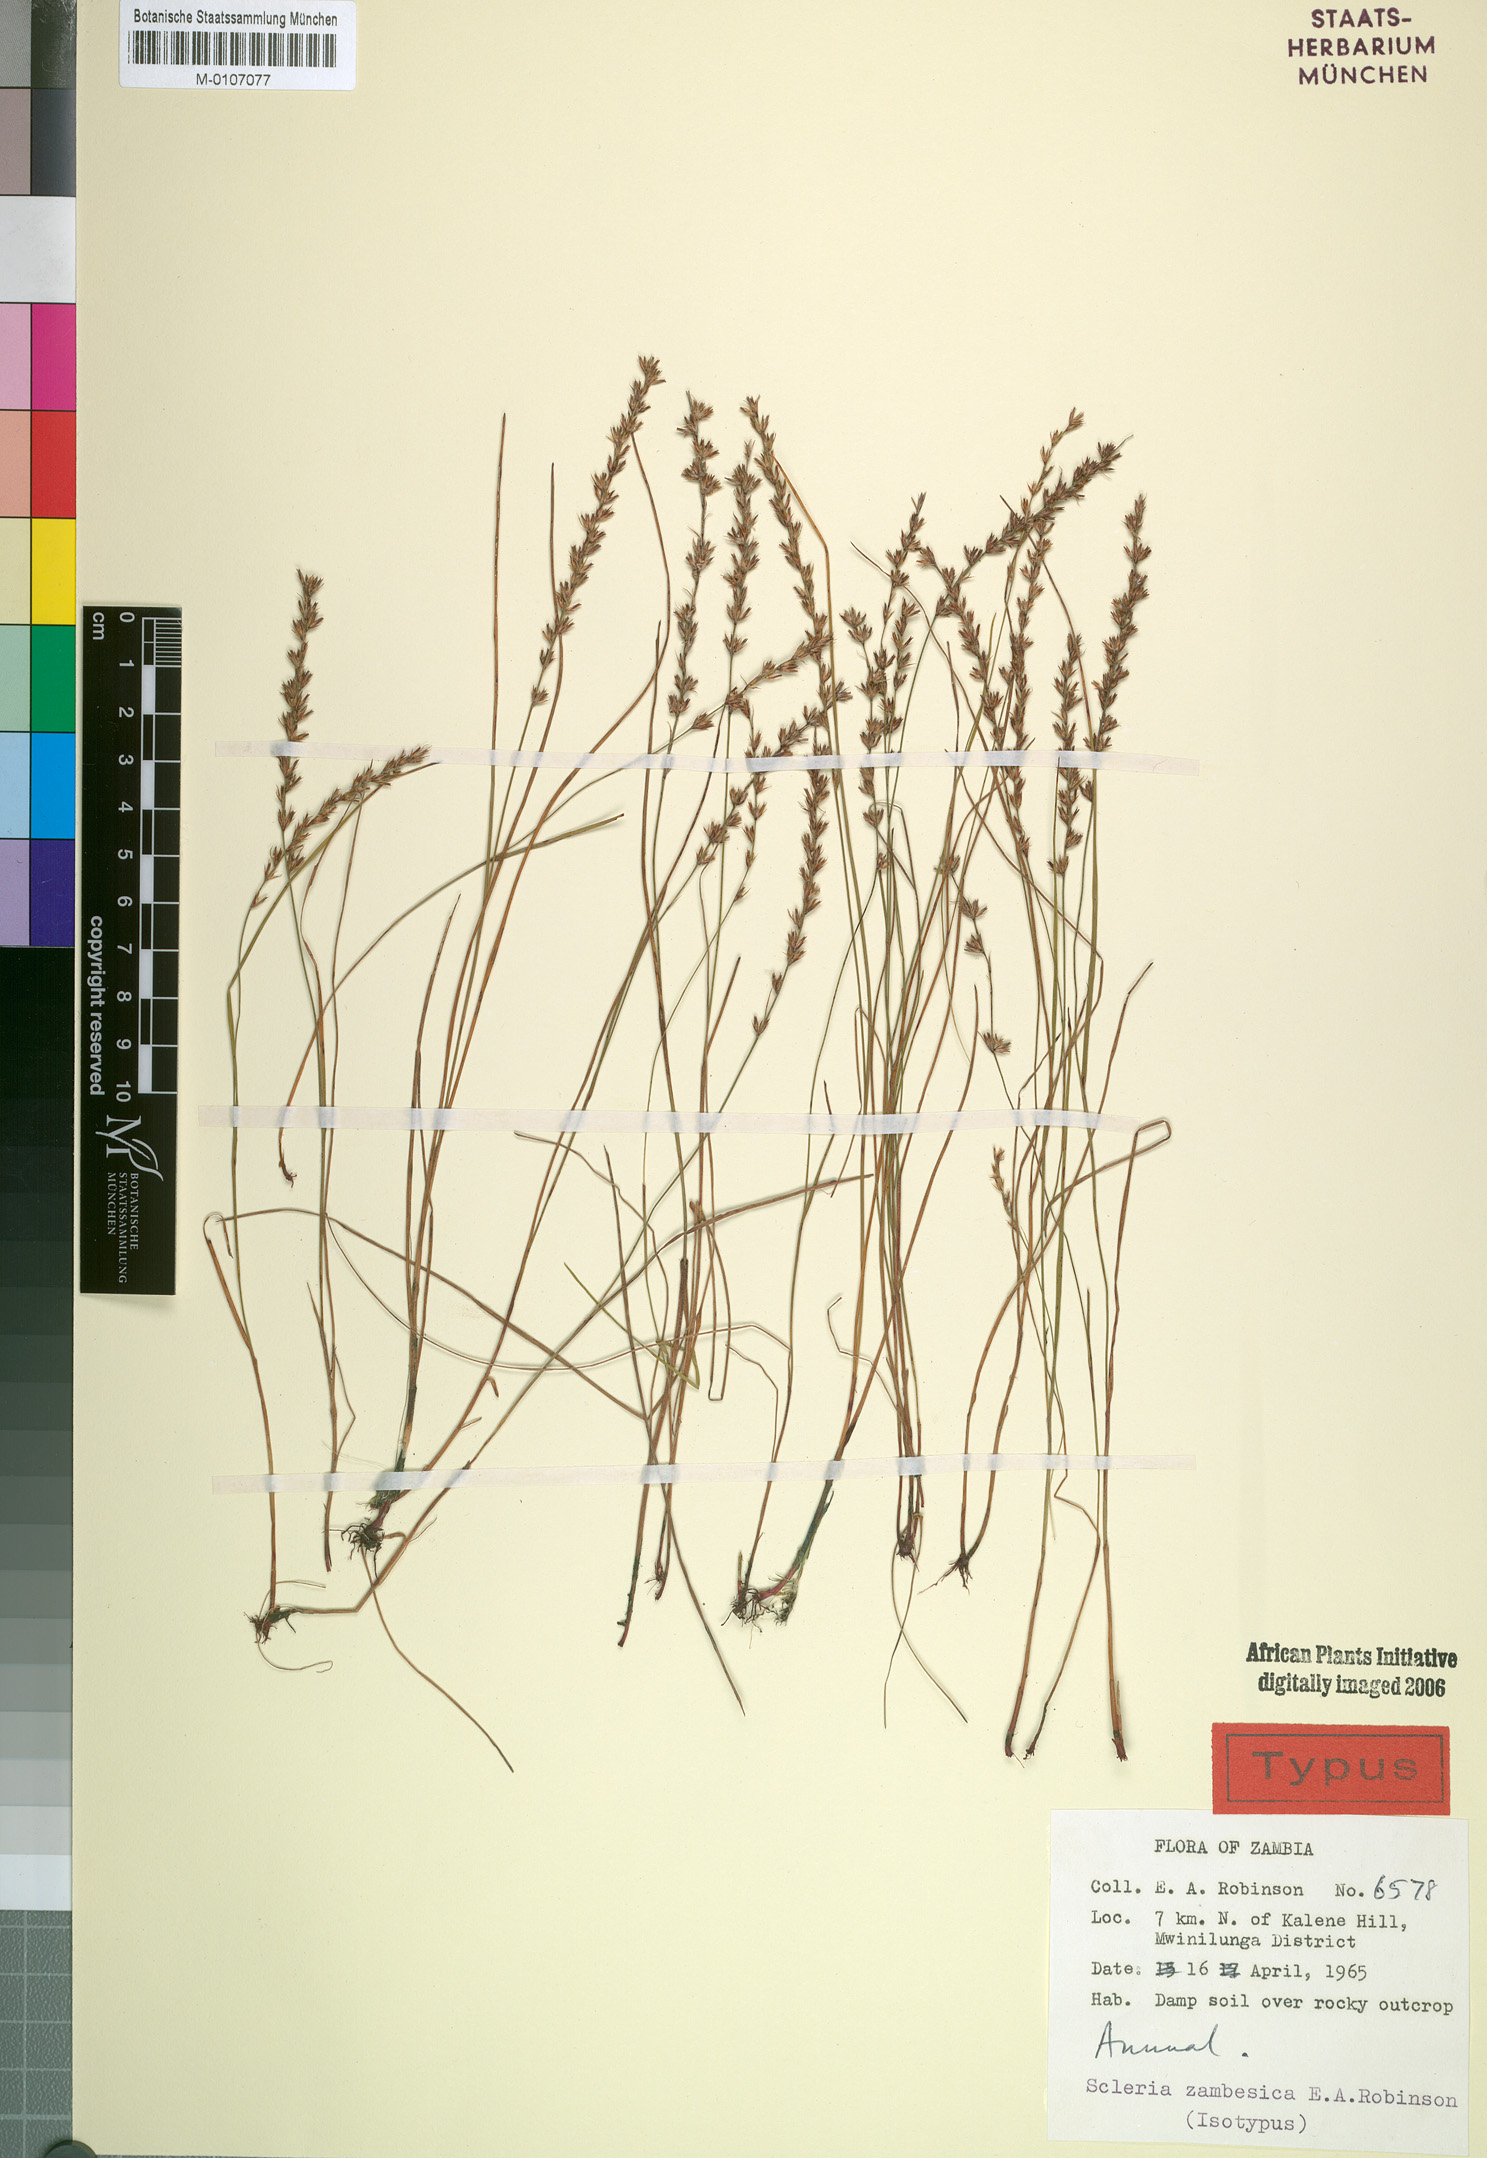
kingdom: Plantae
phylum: Tracheophyta
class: Liliopsida
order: Poales
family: Cyperaceae
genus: Scleria
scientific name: Scleria zambesica
